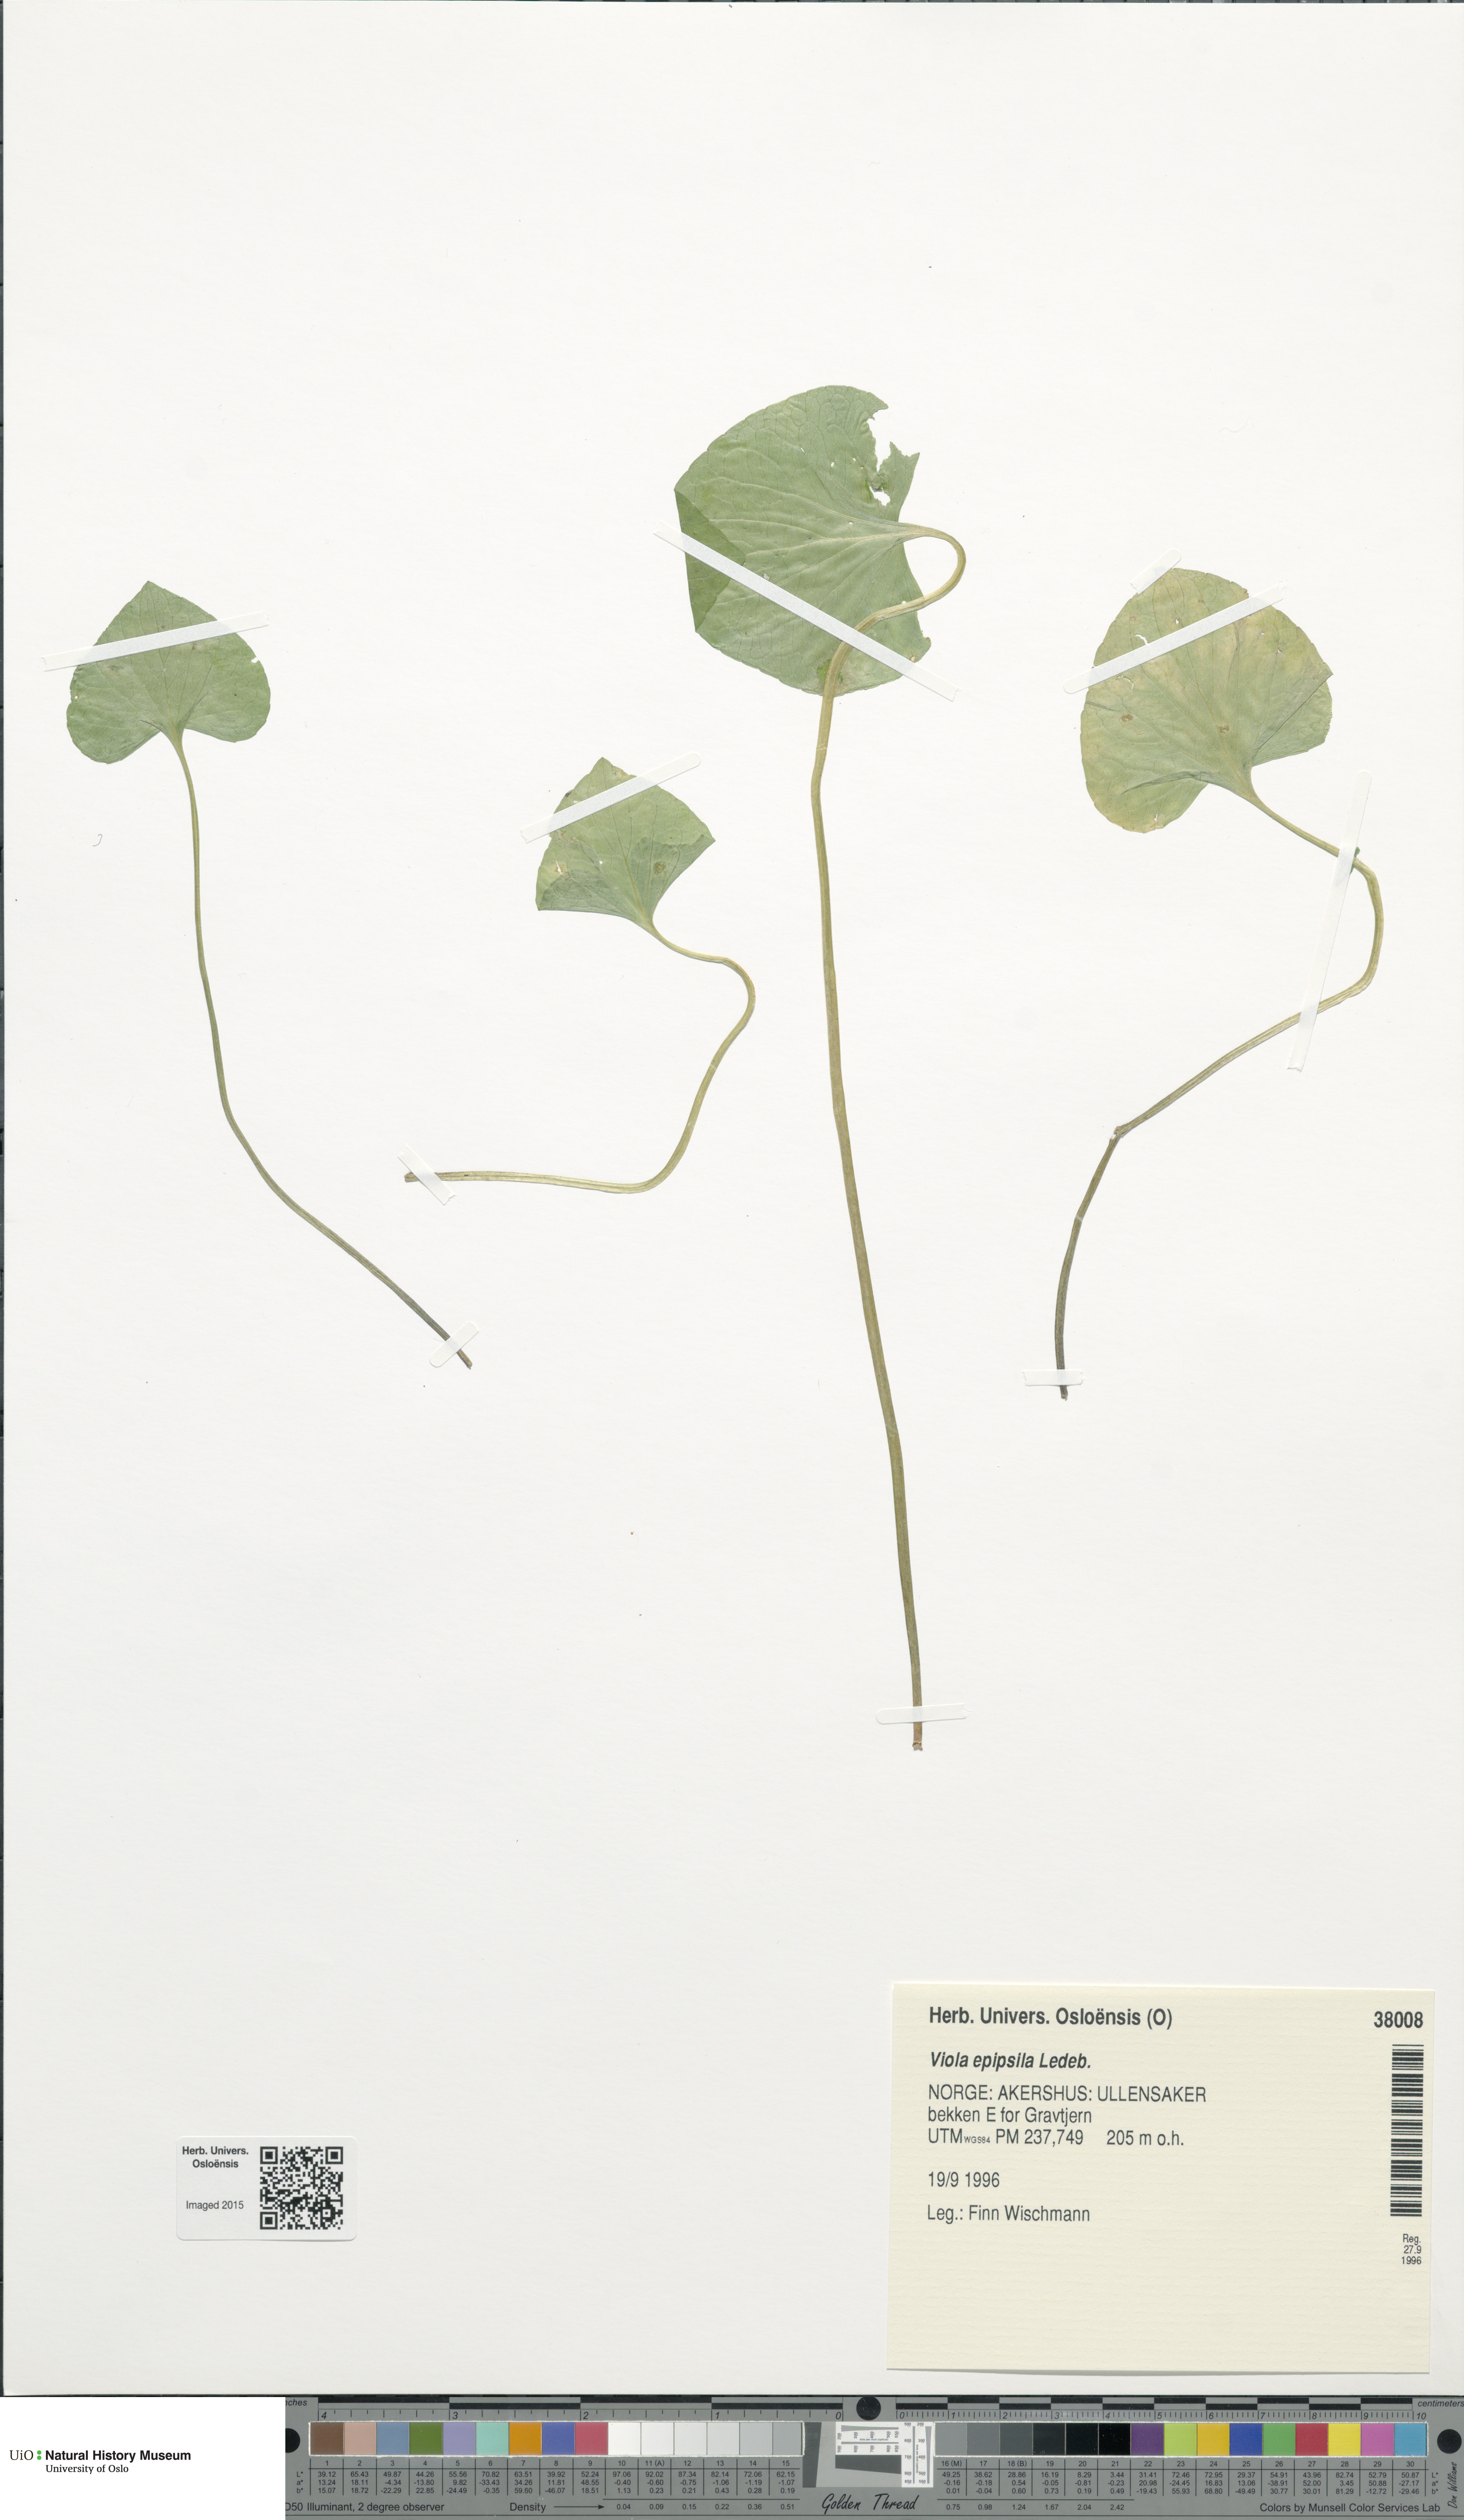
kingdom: Plantae
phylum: Tracheophyta
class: Magnoliopsida
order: Malpighiales
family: Violaceae
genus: Viola
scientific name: Viola epipsila
